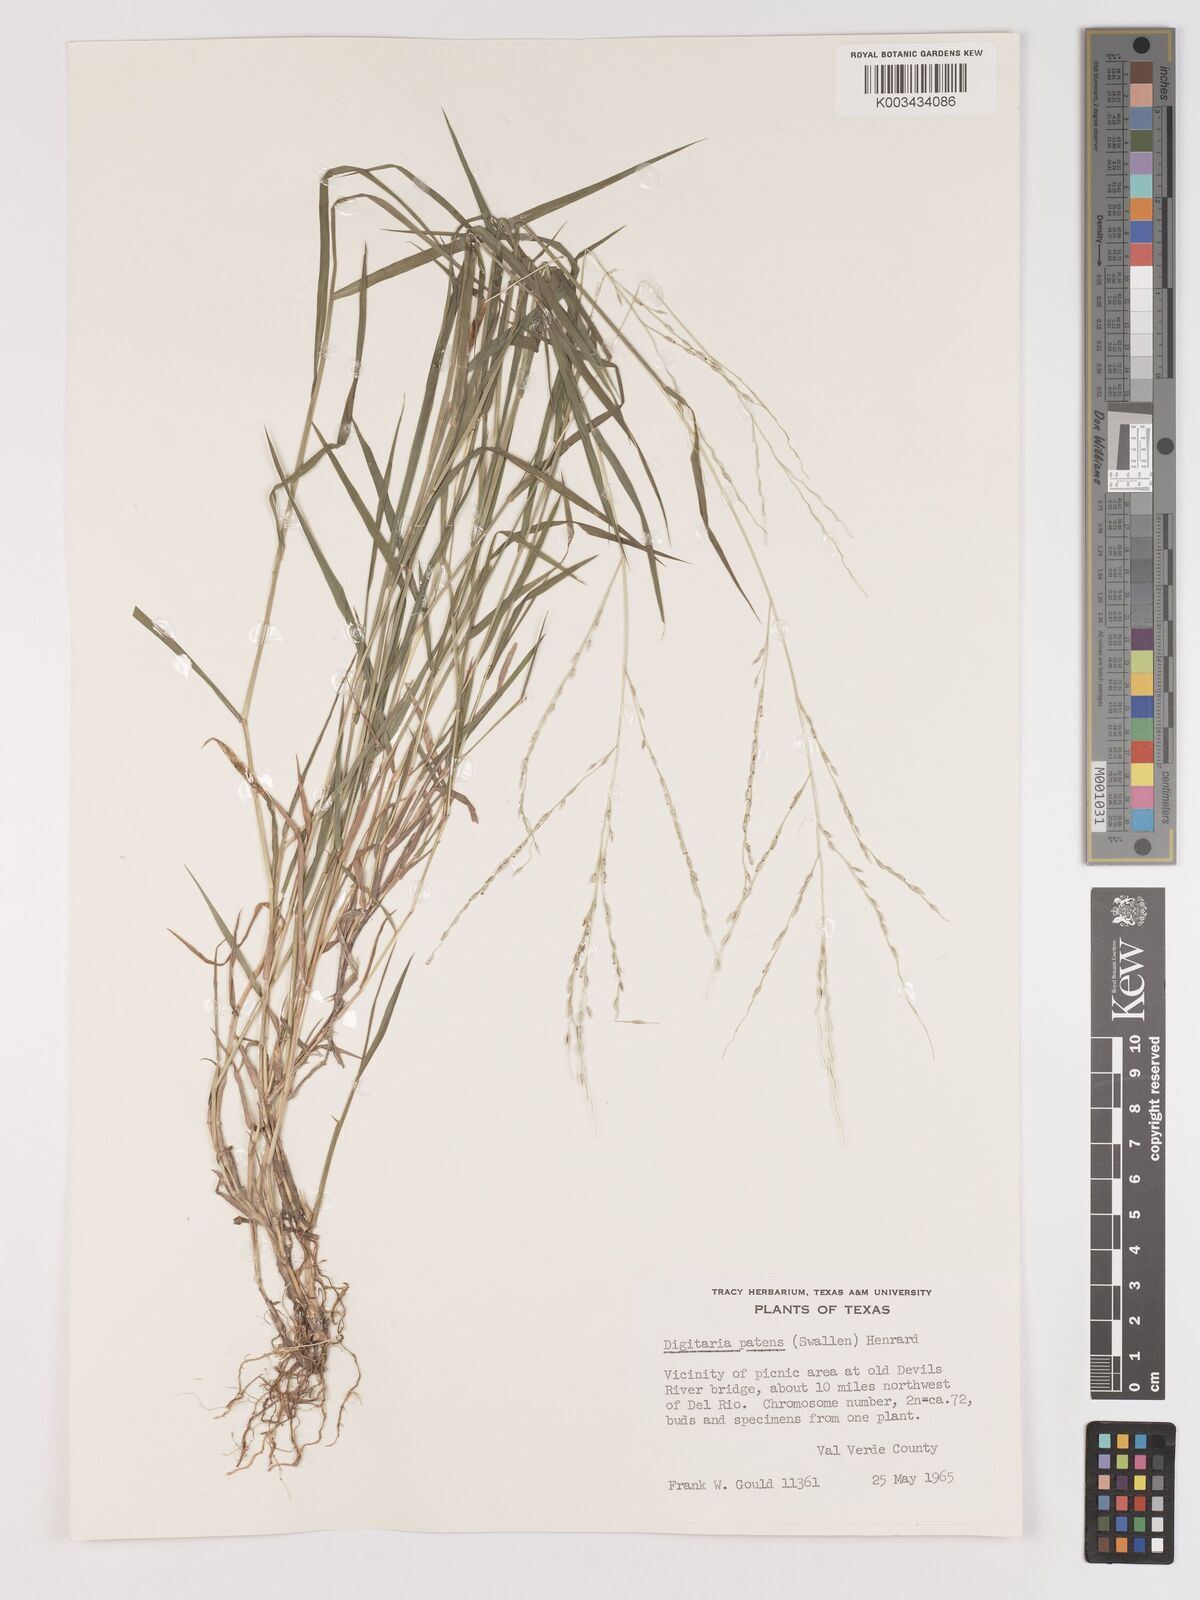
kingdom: Plantae
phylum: Tracheophyta
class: Liliopsida
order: Poales
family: Poaceae
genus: Digitaria
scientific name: Digitaria patens
